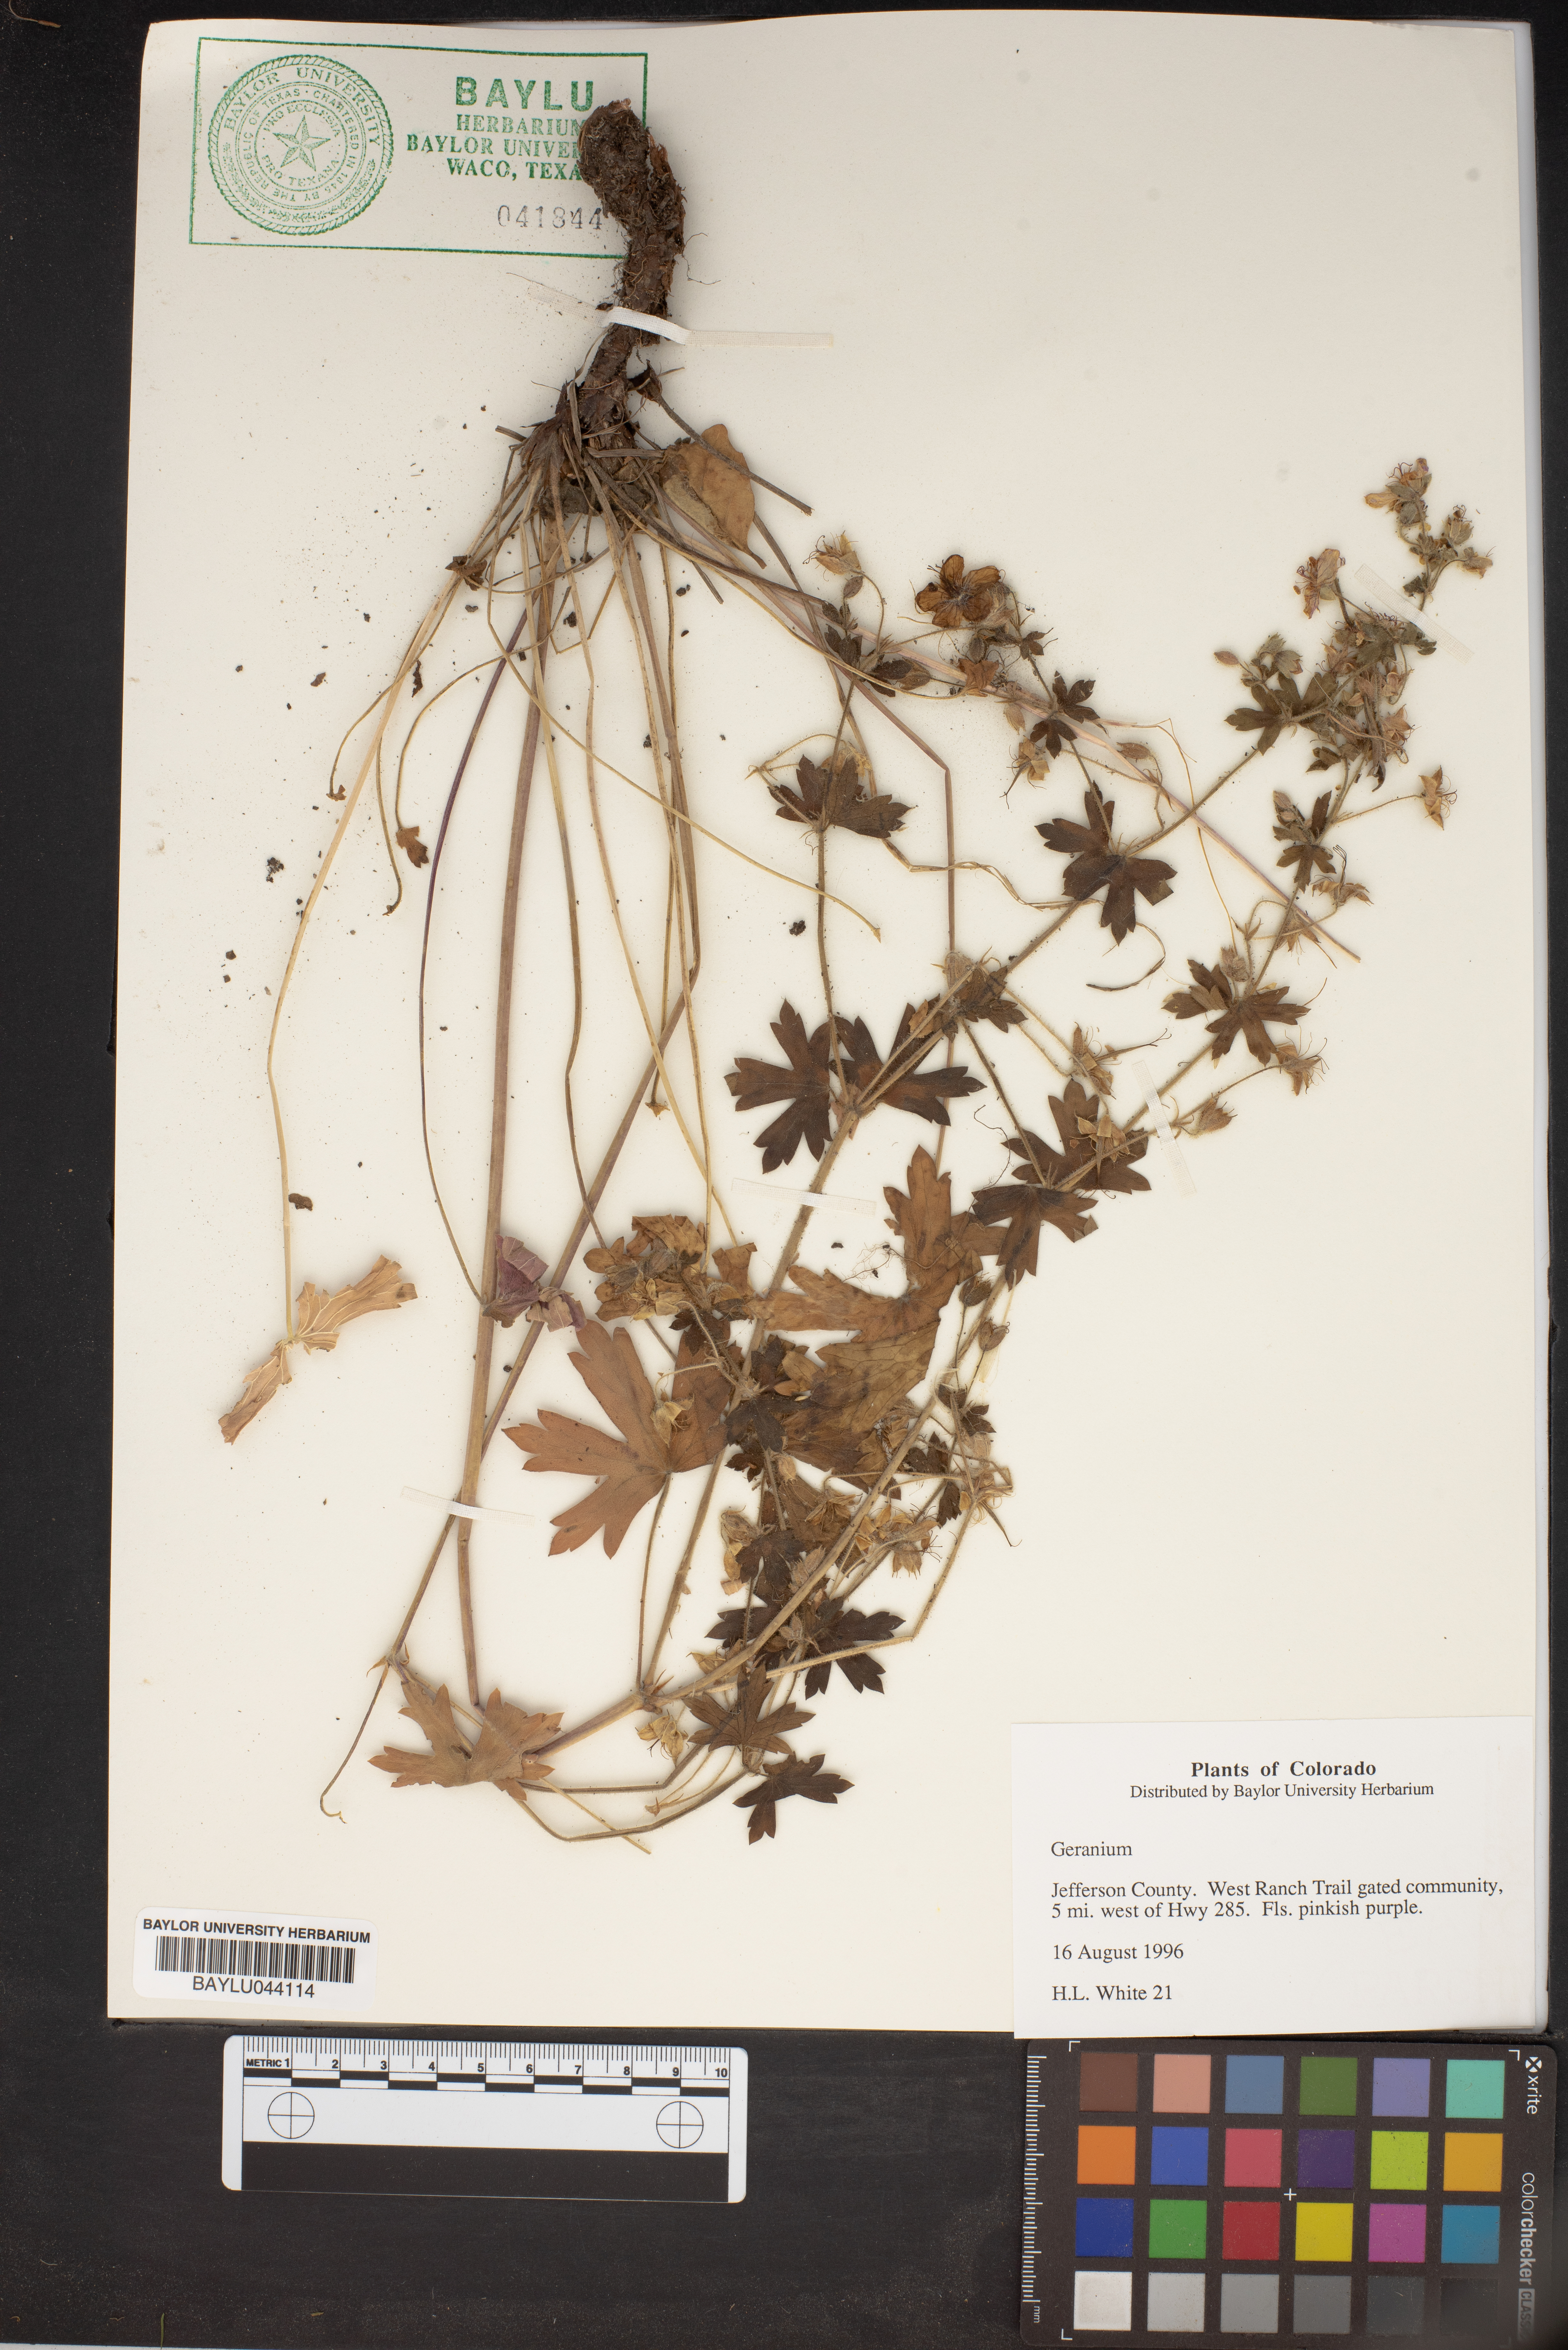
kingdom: Plantae
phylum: Tracheophyta
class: Magnoliopsida
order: Geraniales
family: Geraniaceae
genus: Geranium
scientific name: Geranium
